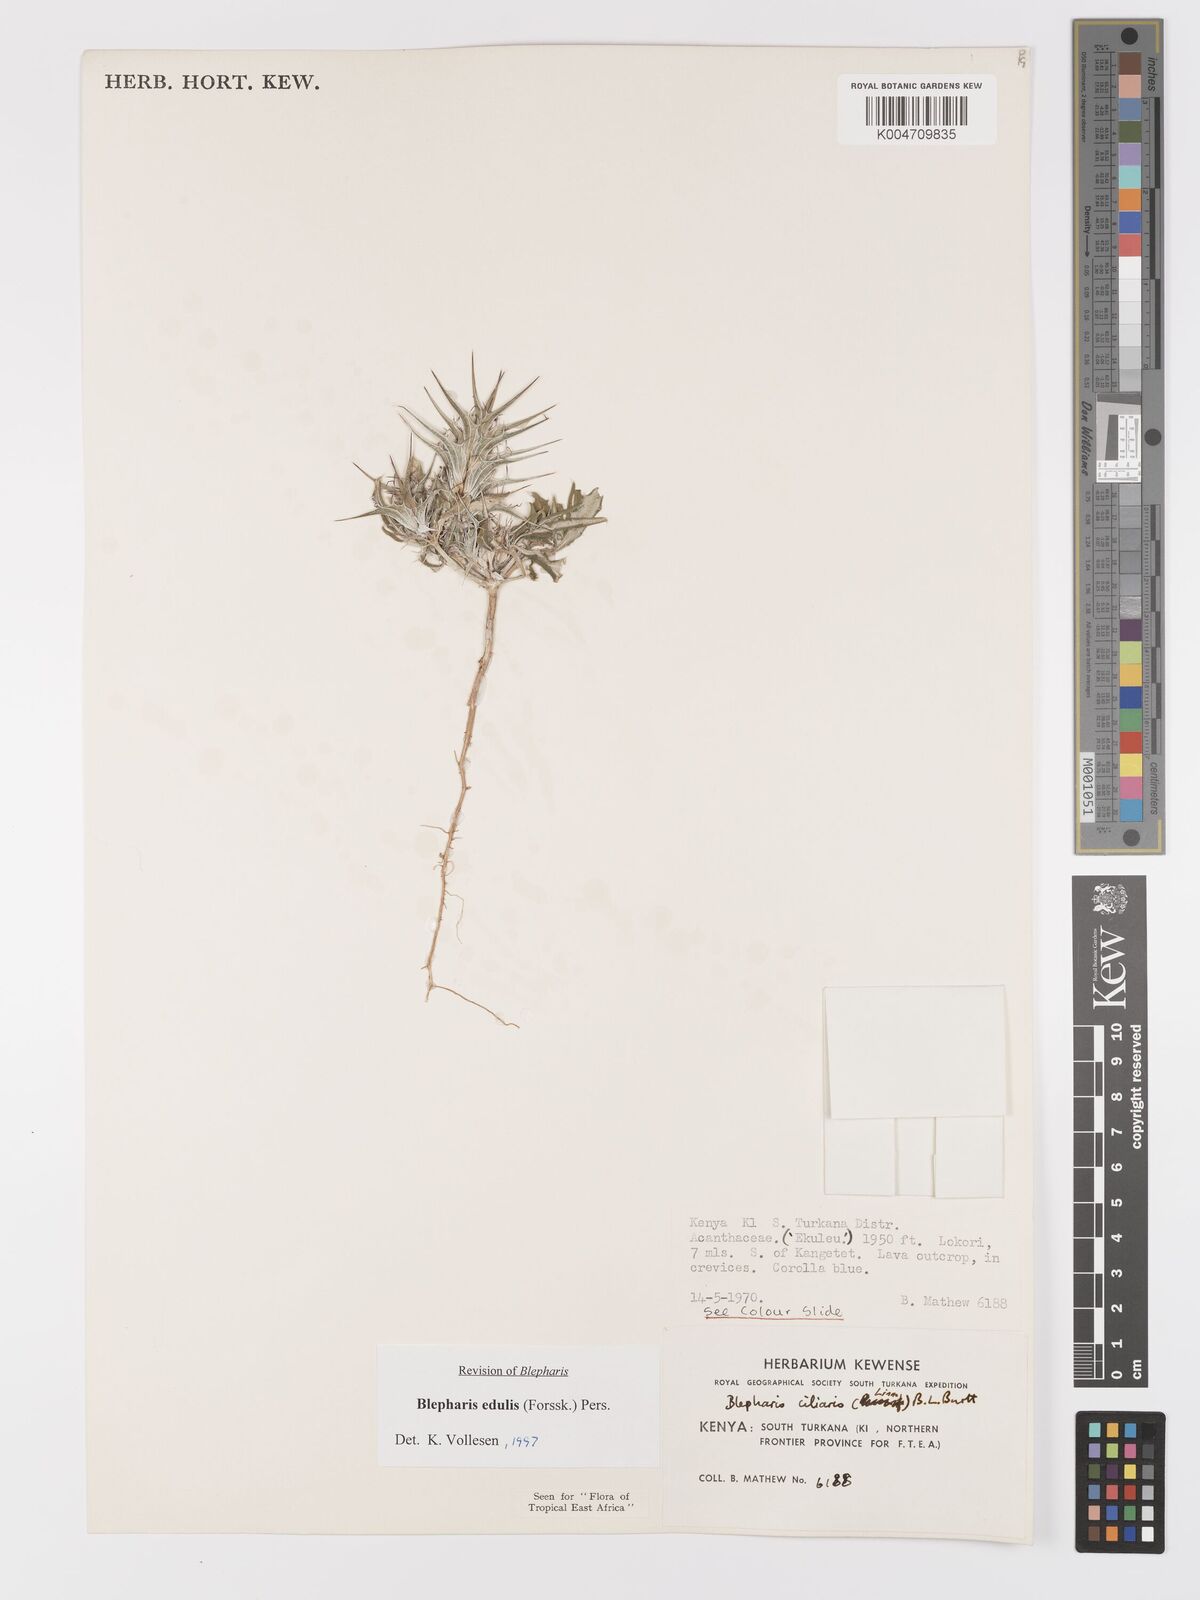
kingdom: Plantae
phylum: Tracheophyta
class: Magnoliopsida
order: Lamiales
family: Acanthaceae
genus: Blepharis
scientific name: Blepharis edulis
